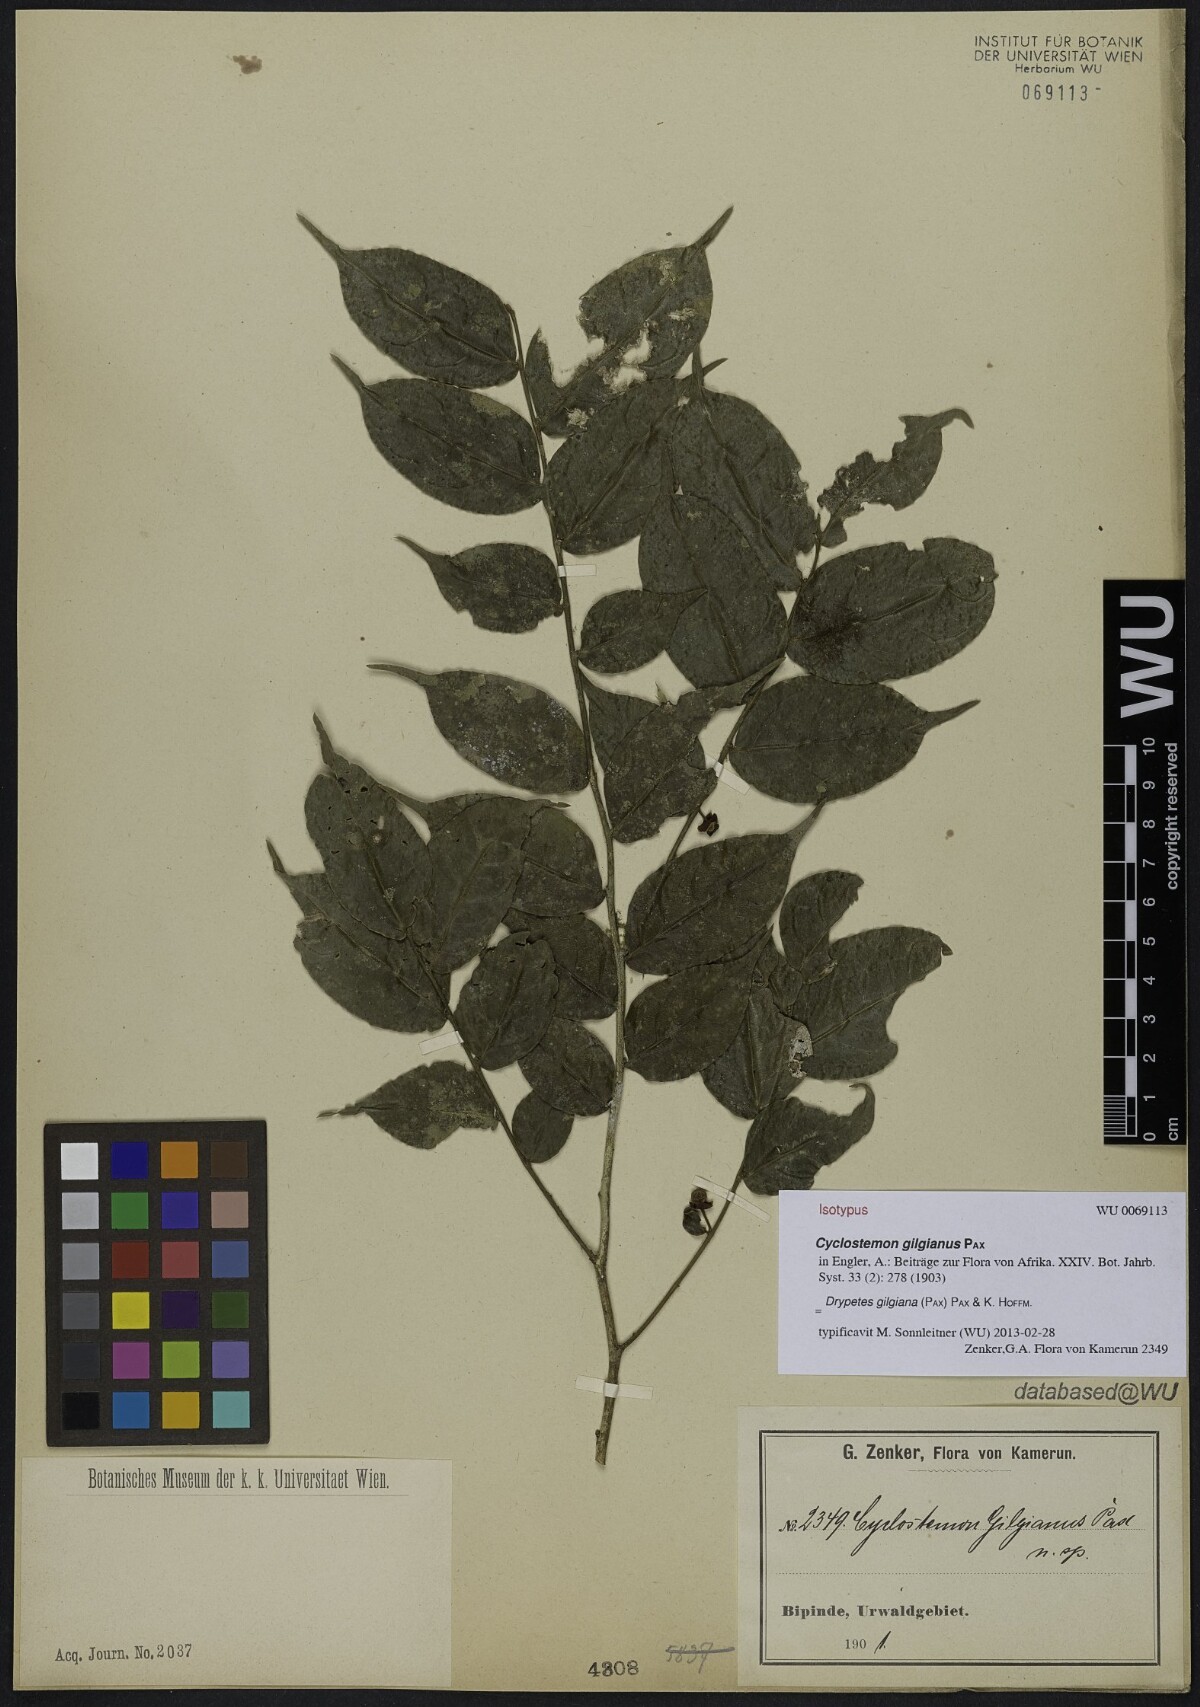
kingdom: Plantae
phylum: Tracheophyta
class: Magnoliopsida
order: Malpighiales
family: Putranjivaceae
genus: Drypetes
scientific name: Drypetes gilgiana
